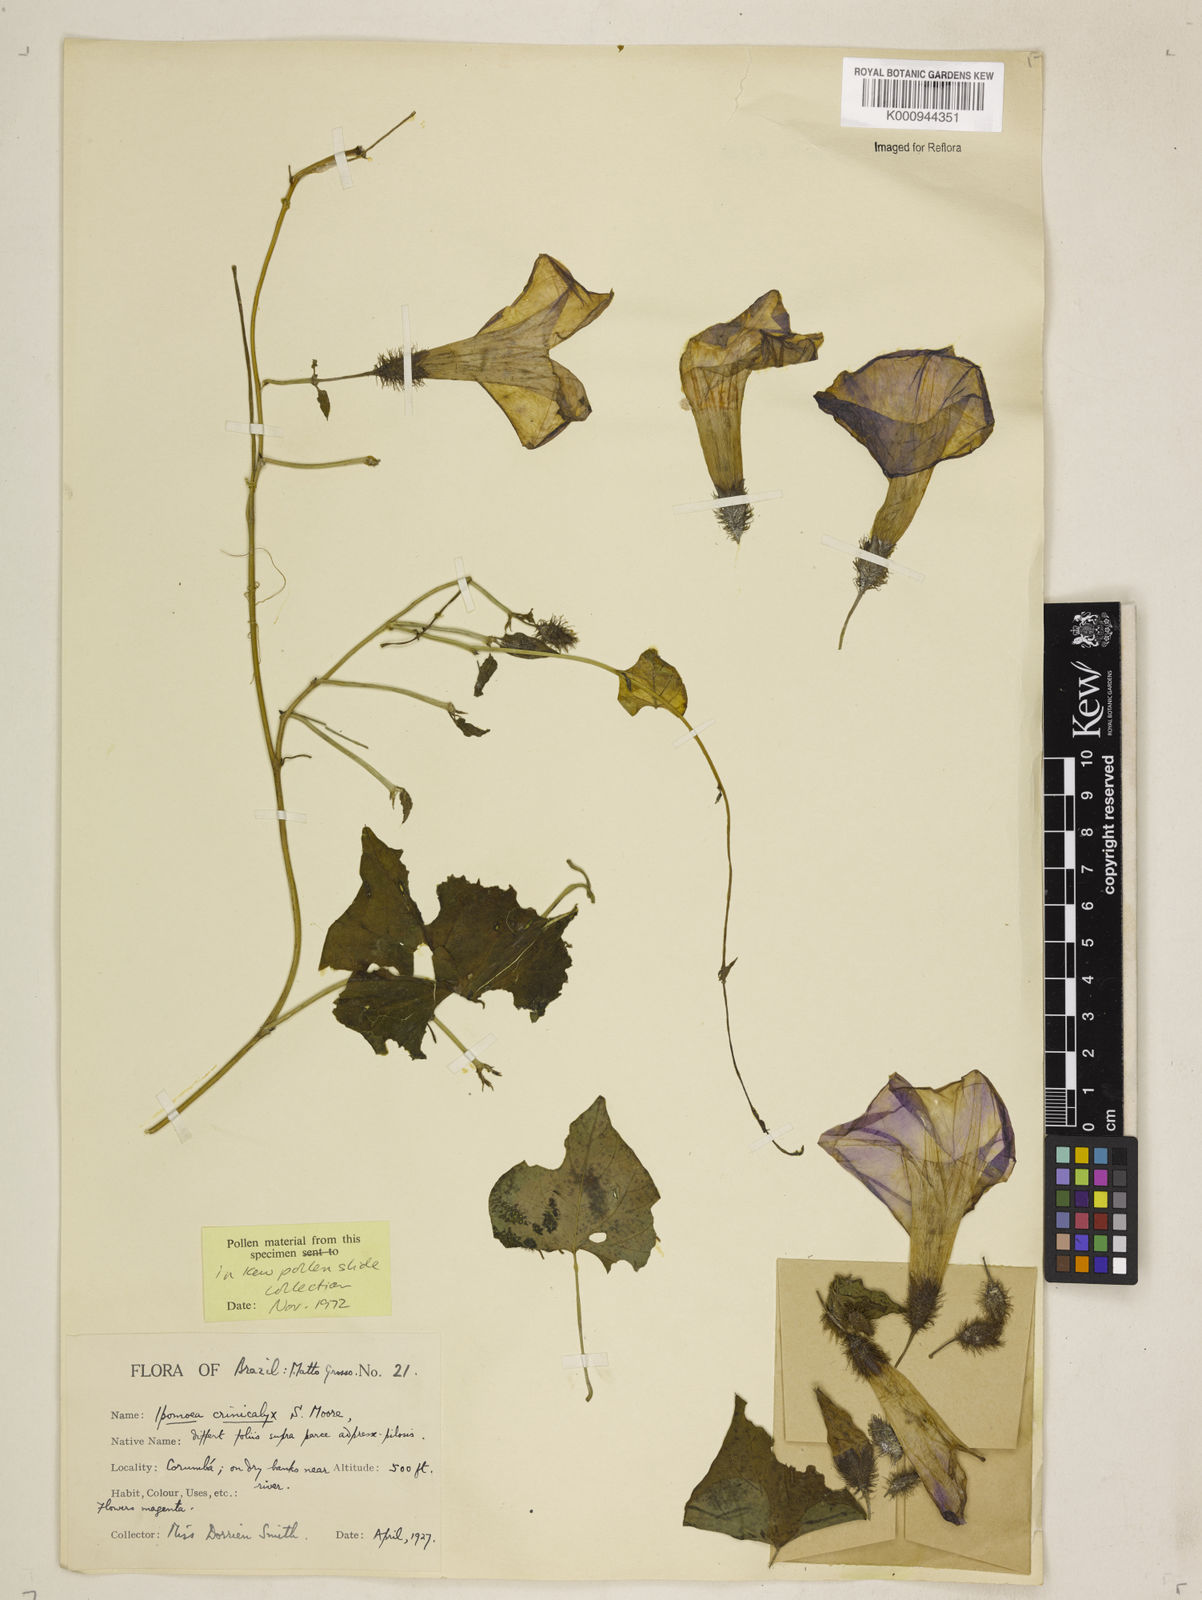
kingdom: Plantae
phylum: Tracheophyta
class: Magnoliopsida
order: Solanales
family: Convolvulaceae
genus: Ipomoea
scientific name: Ipomoea crinicalyx
